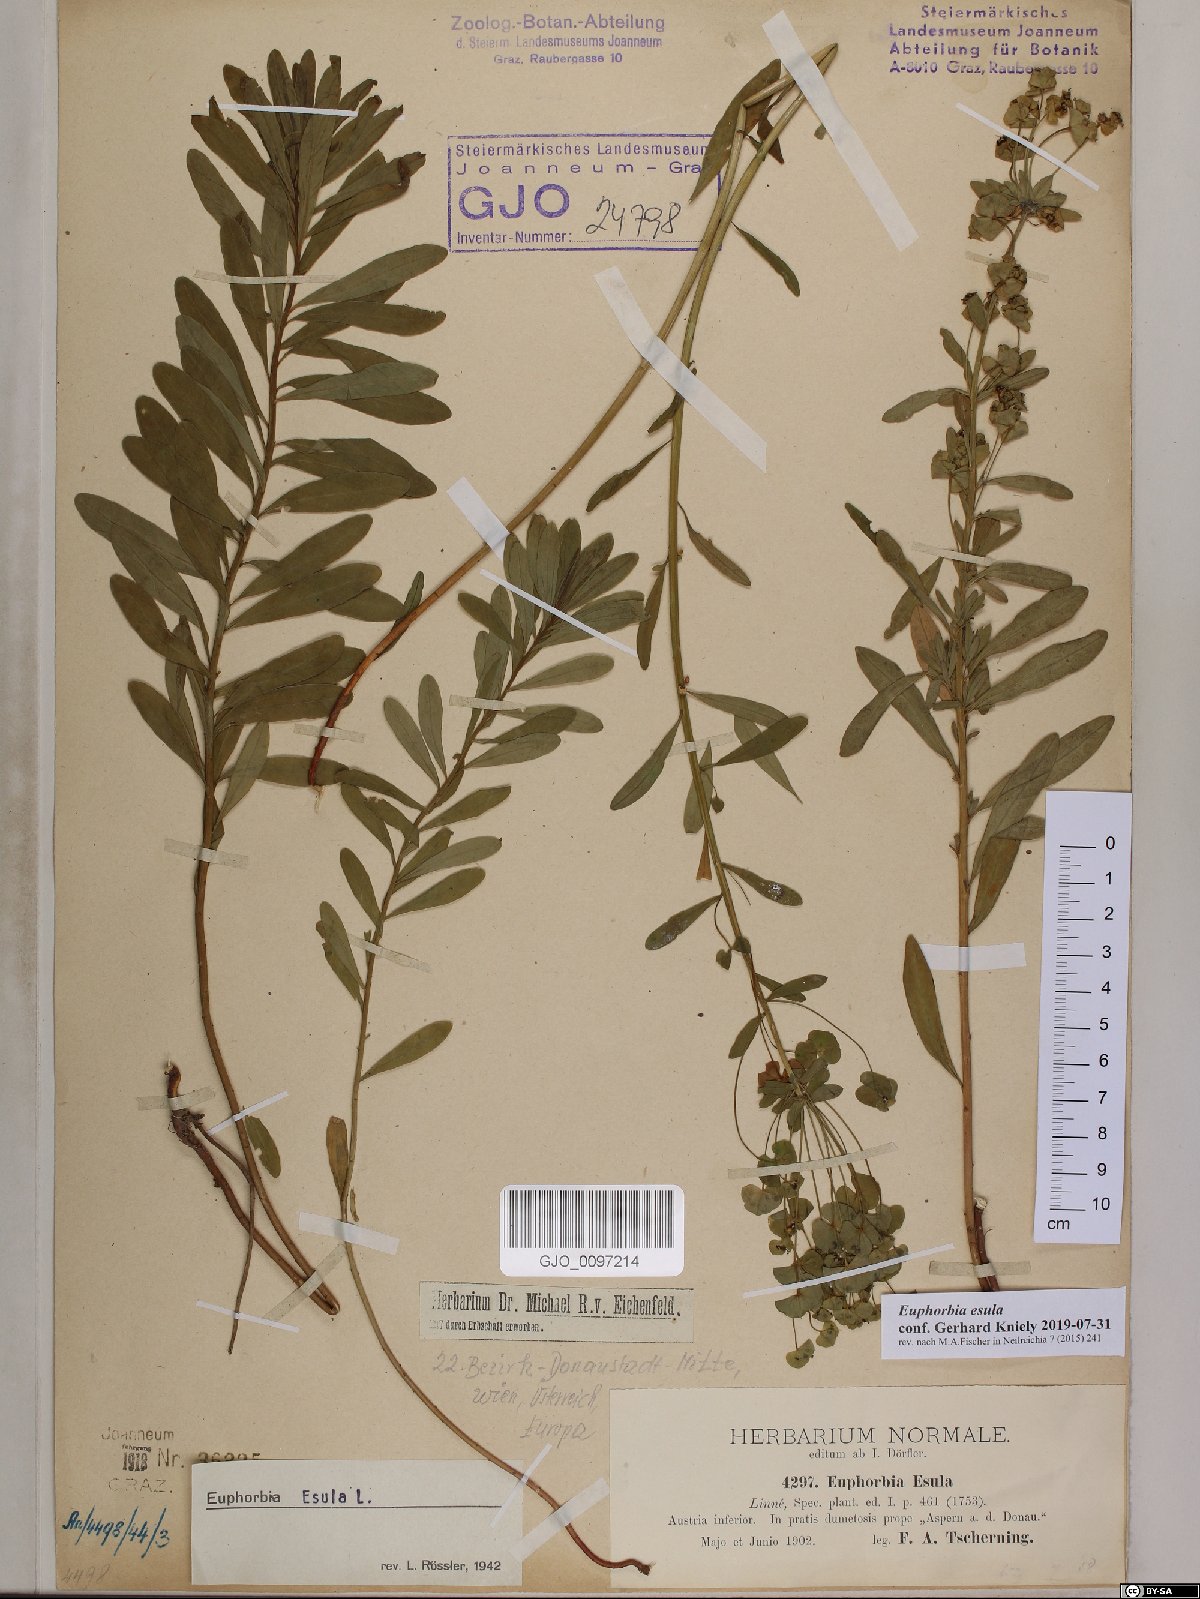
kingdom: Plantae
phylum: Tracheophyta
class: Magnoliopsida
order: Malpighiales
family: Euphorbiaceae
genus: Euphorbia
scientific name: Euphorbia esula
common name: Leafy spurge
